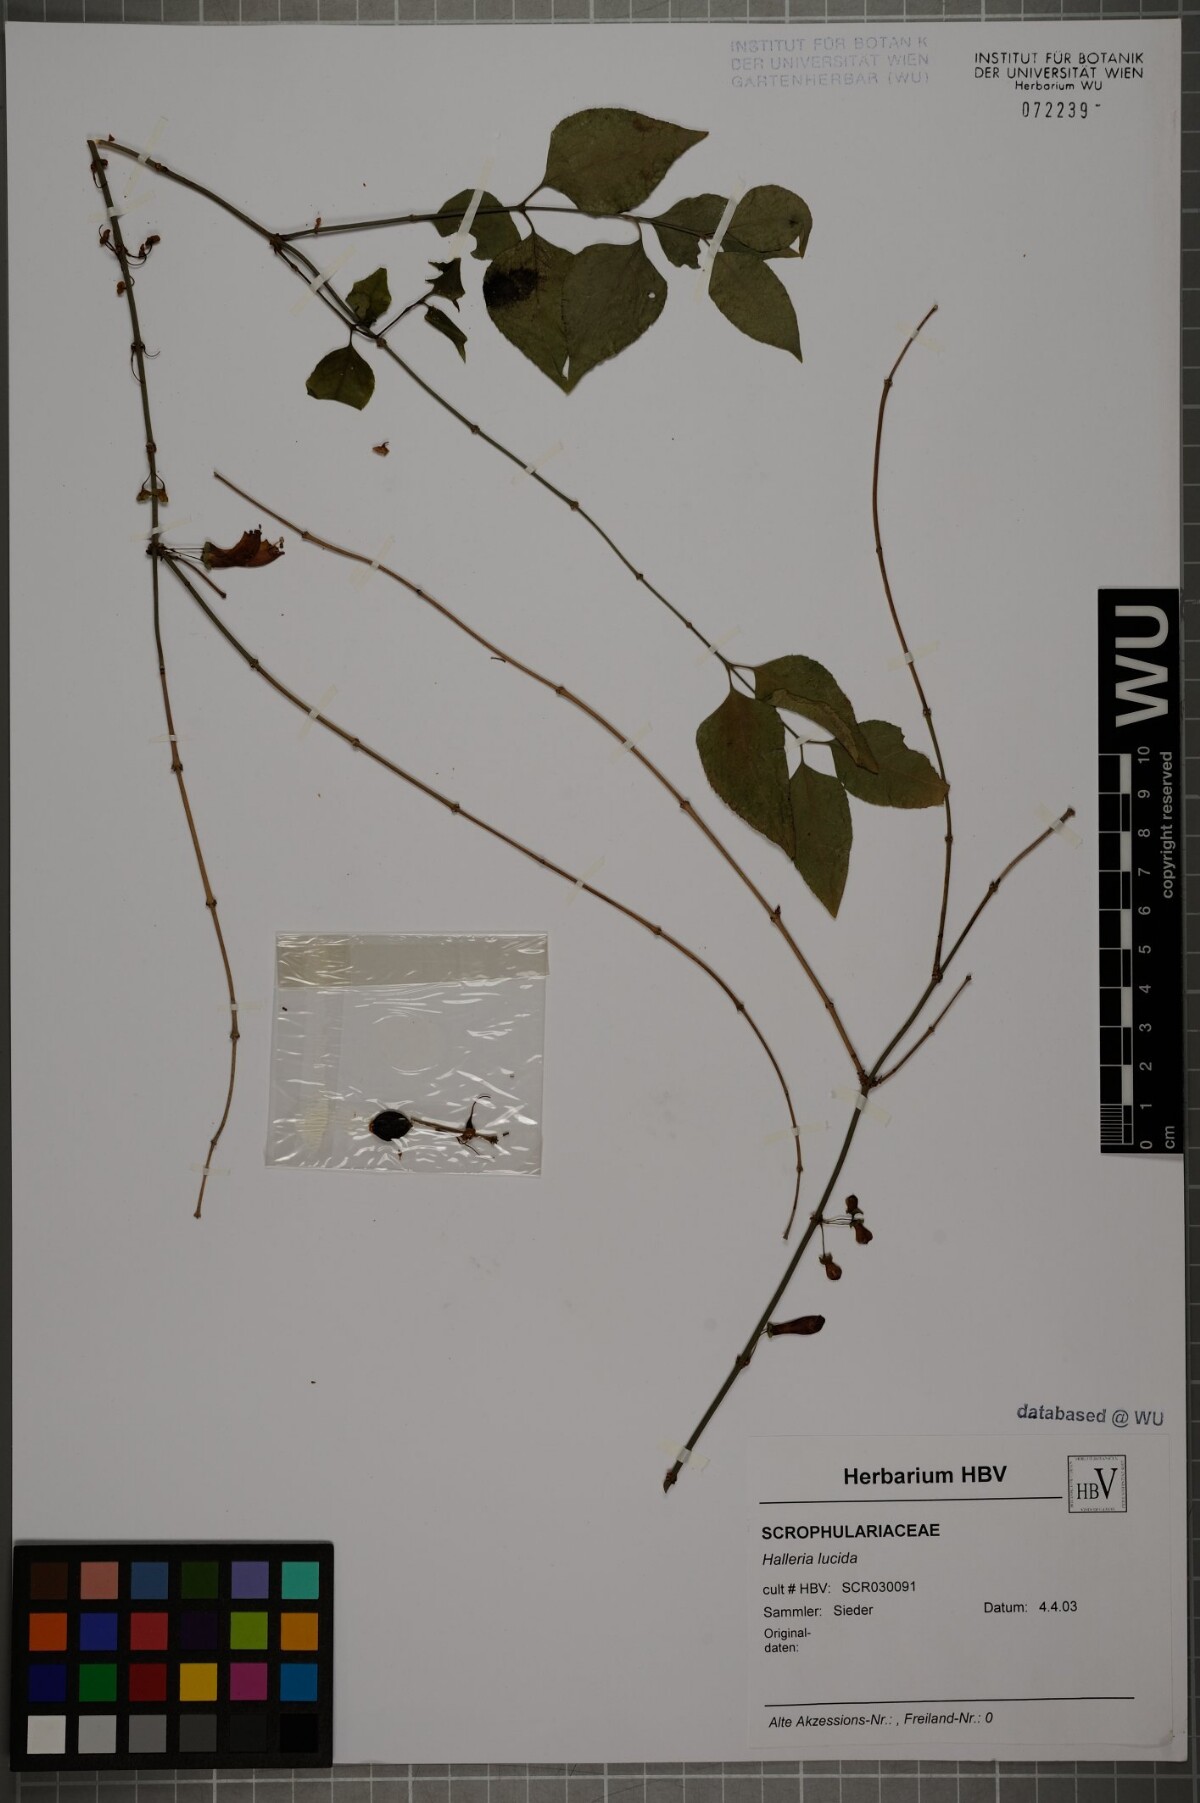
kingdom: Plantae
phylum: Tracheophyta
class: Magnoliopsida
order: Lamiales
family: Stilbaceae
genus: Halleria
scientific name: Halleria lucida
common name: Tree fuschia
